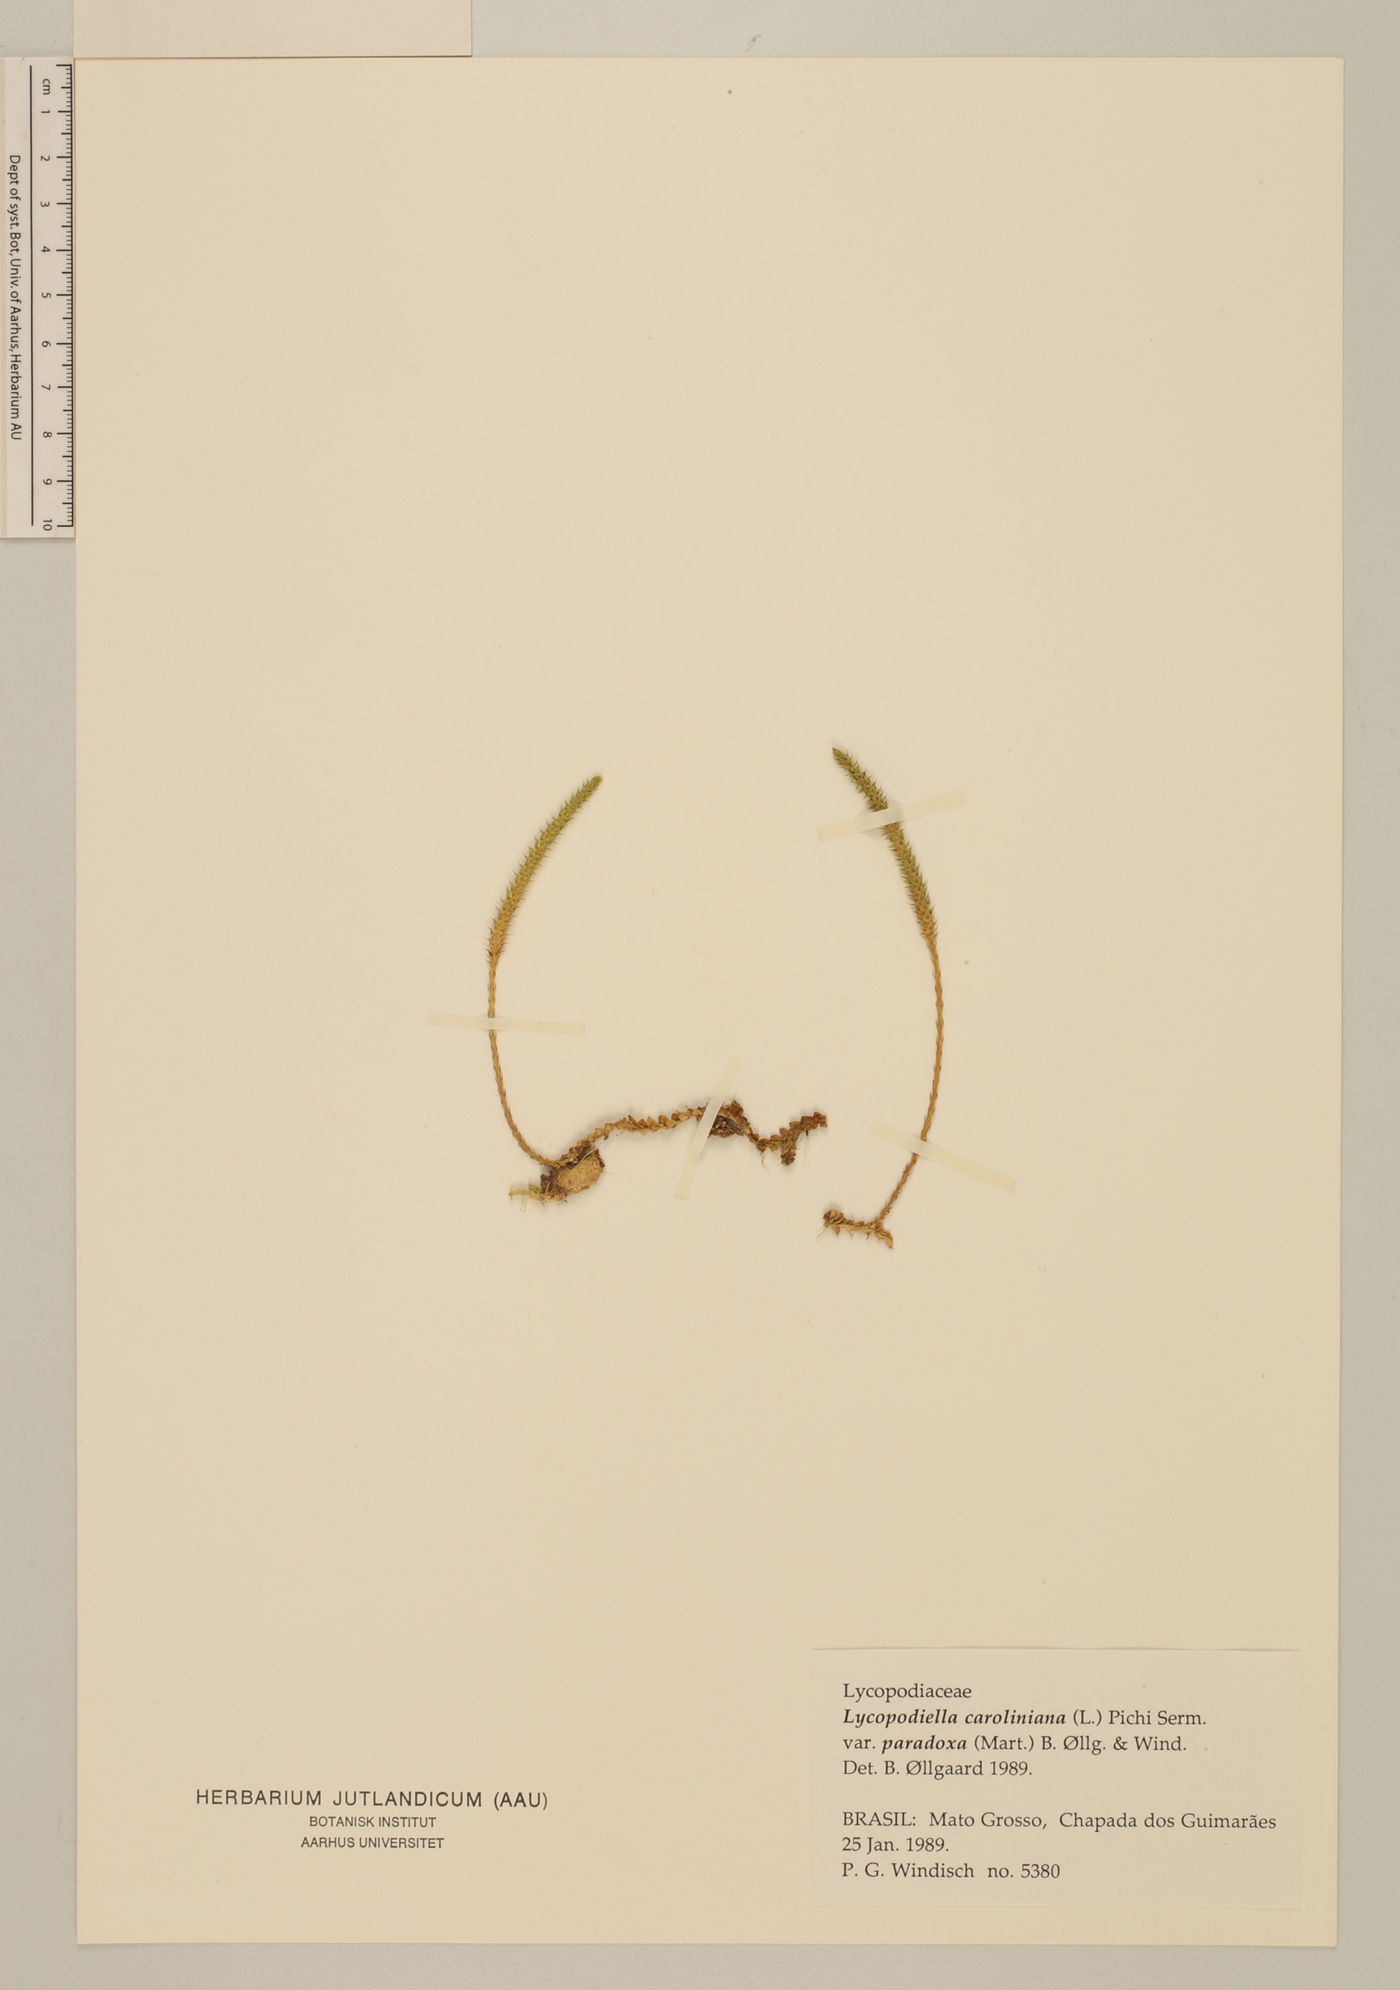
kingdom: Plantae
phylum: Tracheophyta
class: Lycopodiopsida
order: Lycopodiales
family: Lycopodiaceae
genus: Pseudolycopodiella
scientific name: Pseudolycopodiella paradoxa
